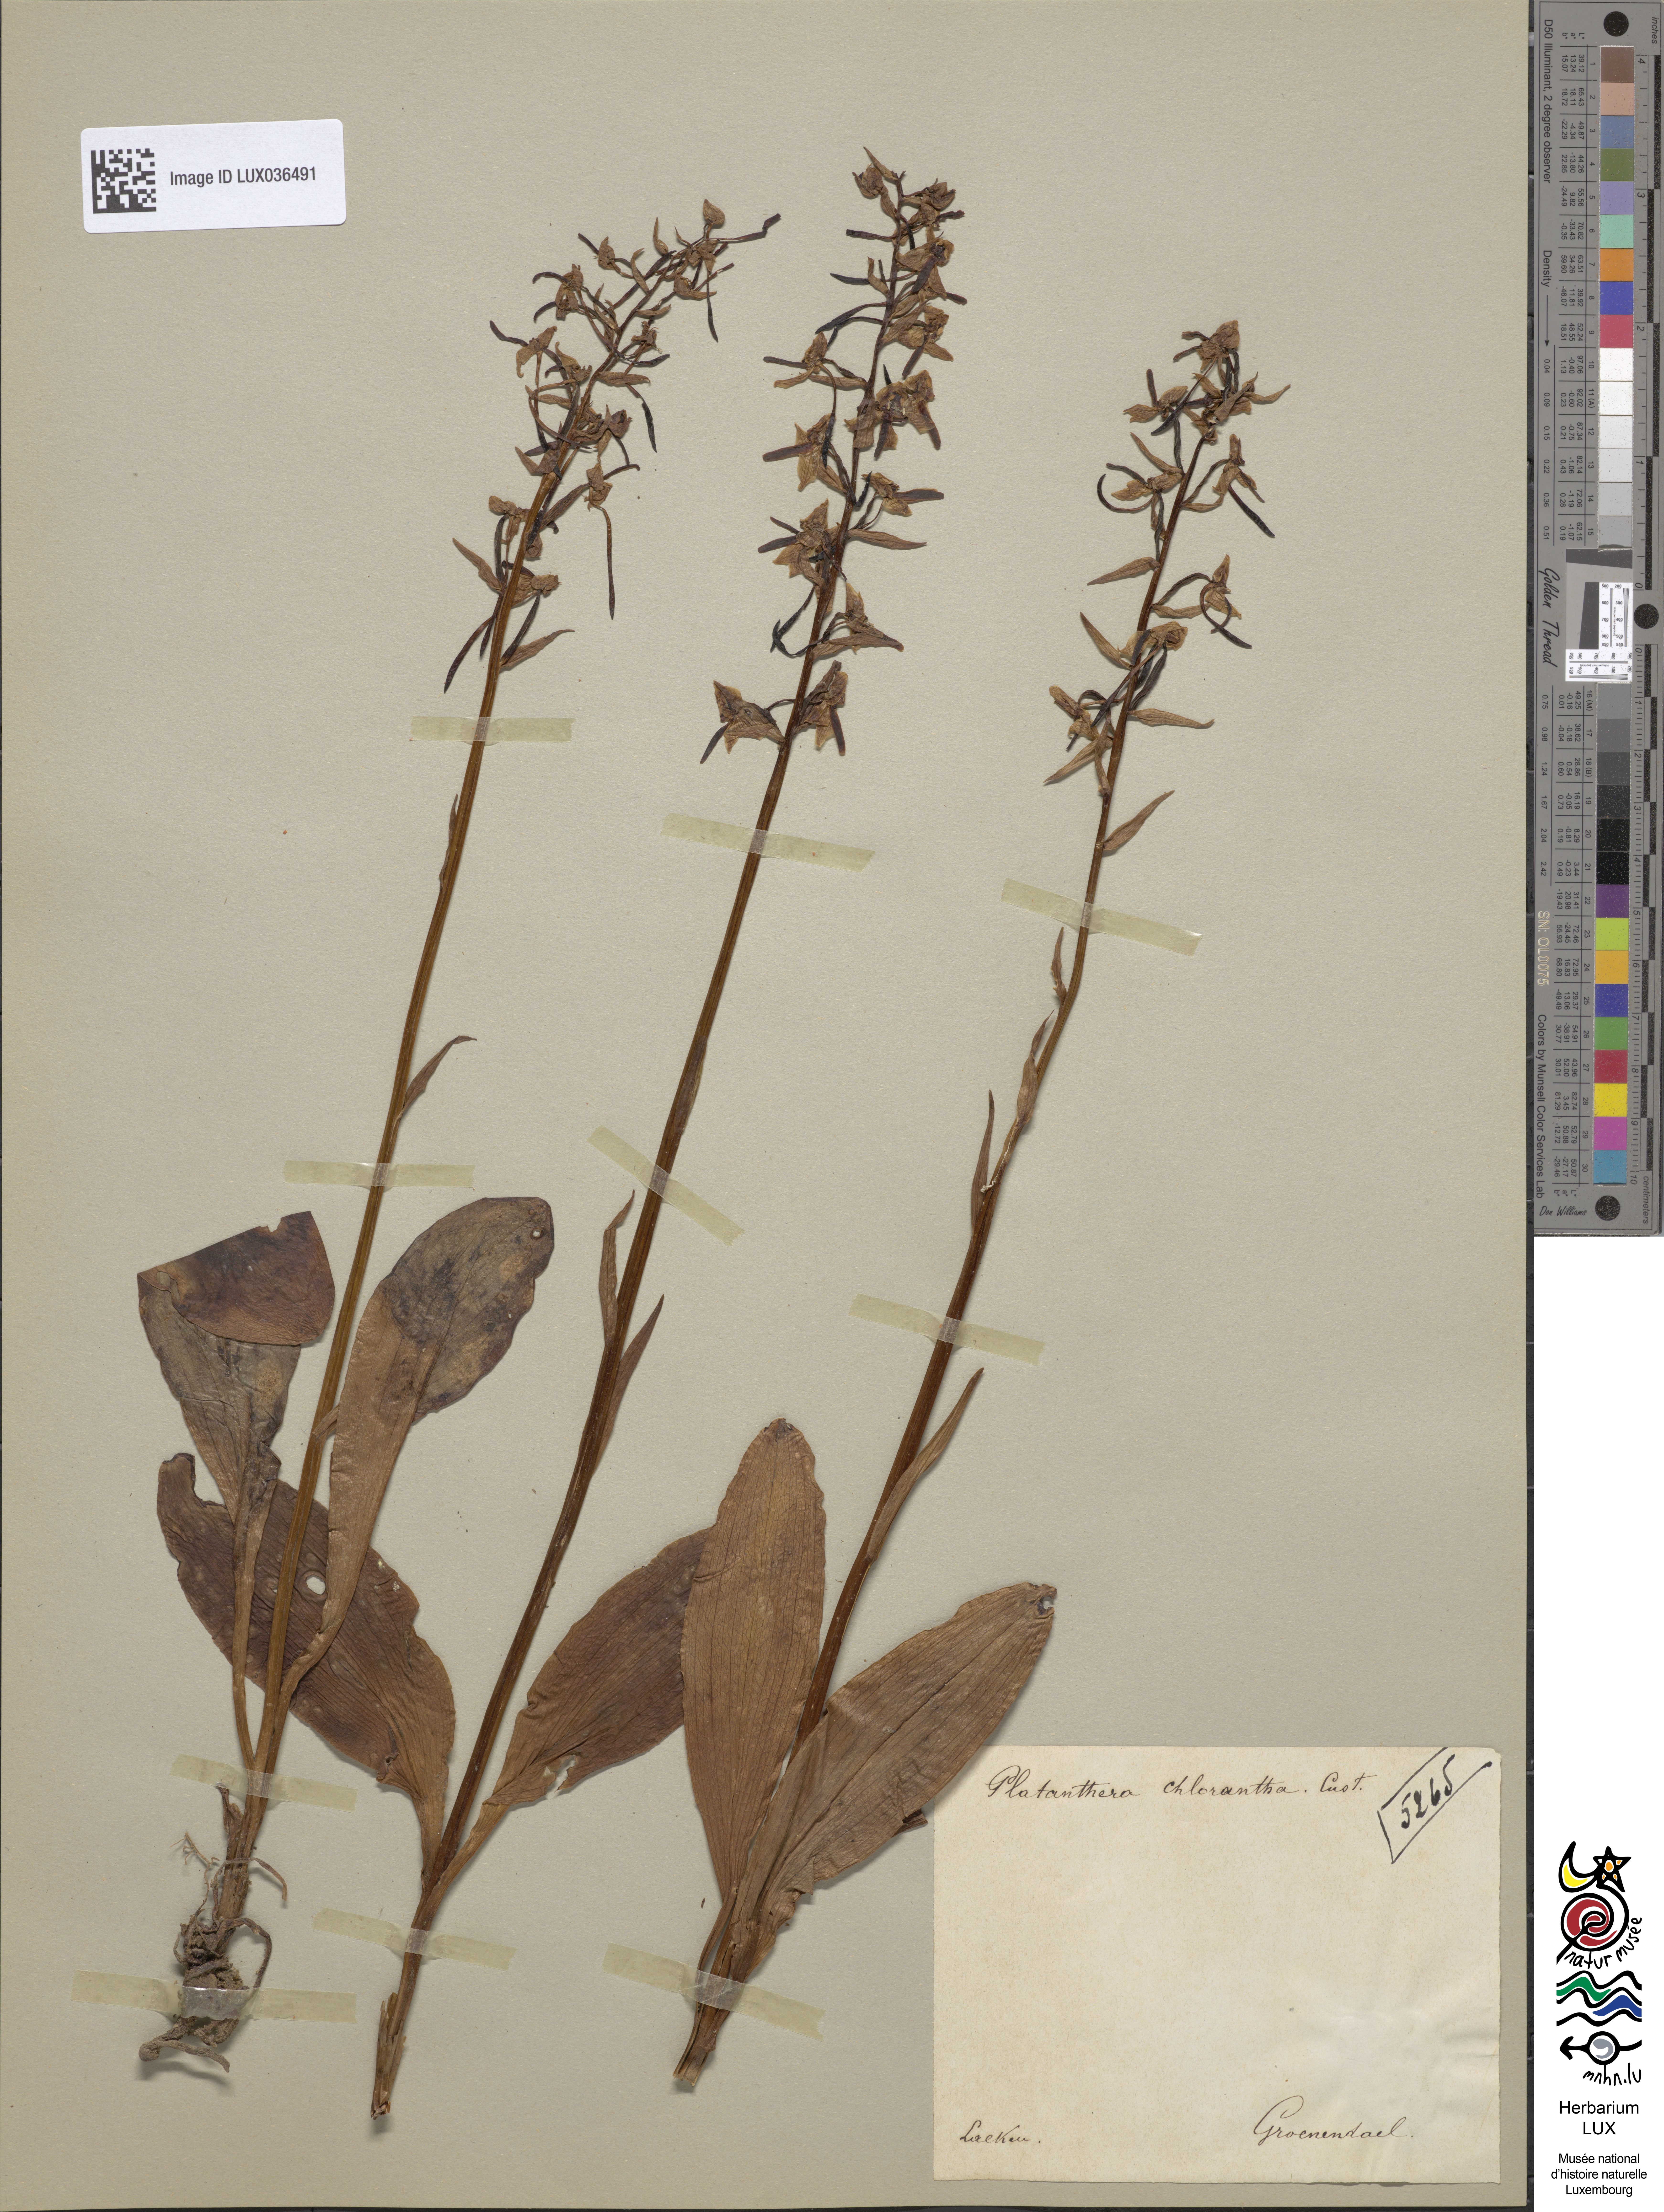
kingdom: Plantae
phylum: Tracheophyta
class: Liliopsida
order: Asparagales
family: Orchidaceae
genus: Platanthera
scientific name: Platanthera chlorantha
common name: Greater butterfly-orchid
